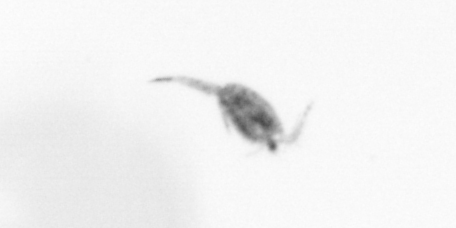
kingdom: Animalia
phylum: Arthropoda
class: Copepoda
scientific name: Copepoda
